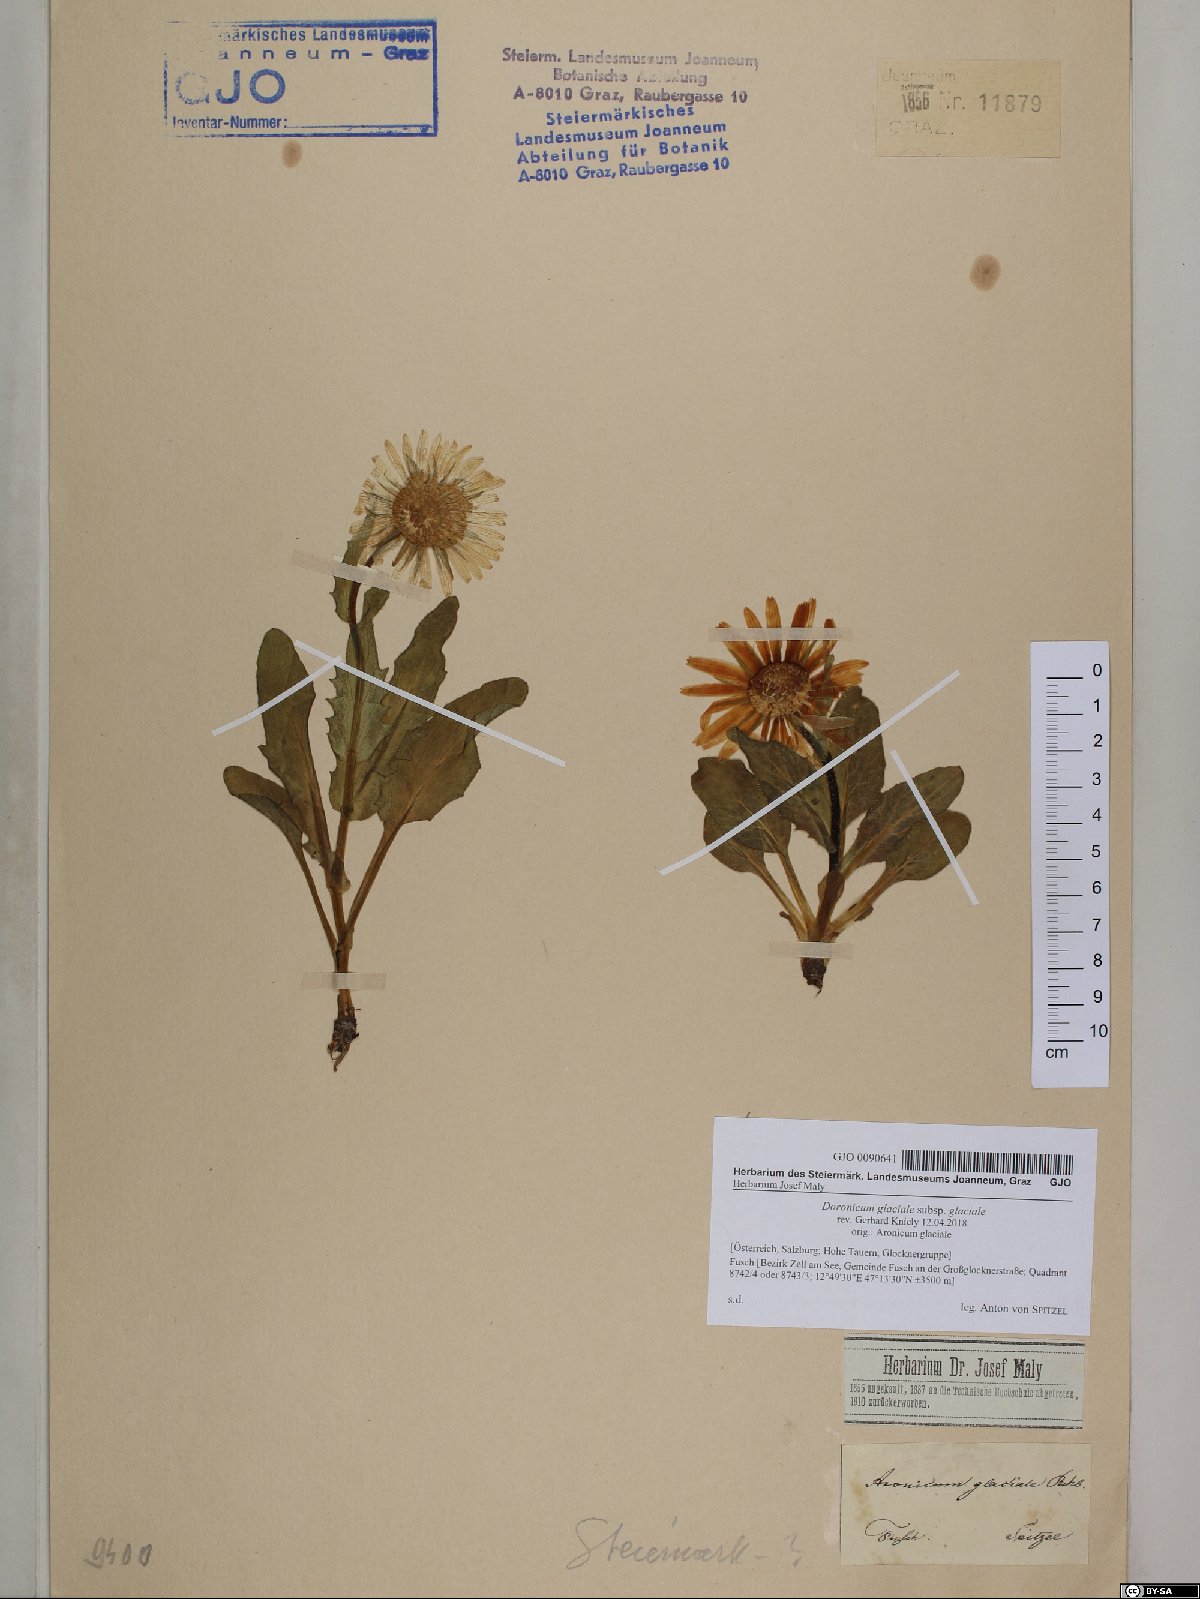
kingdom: Plantae
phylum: Tracheophyta
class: Magnoliopsida
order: Asterales
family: Asteraceae
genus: Doronicum
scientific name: Doronicum glaciale
